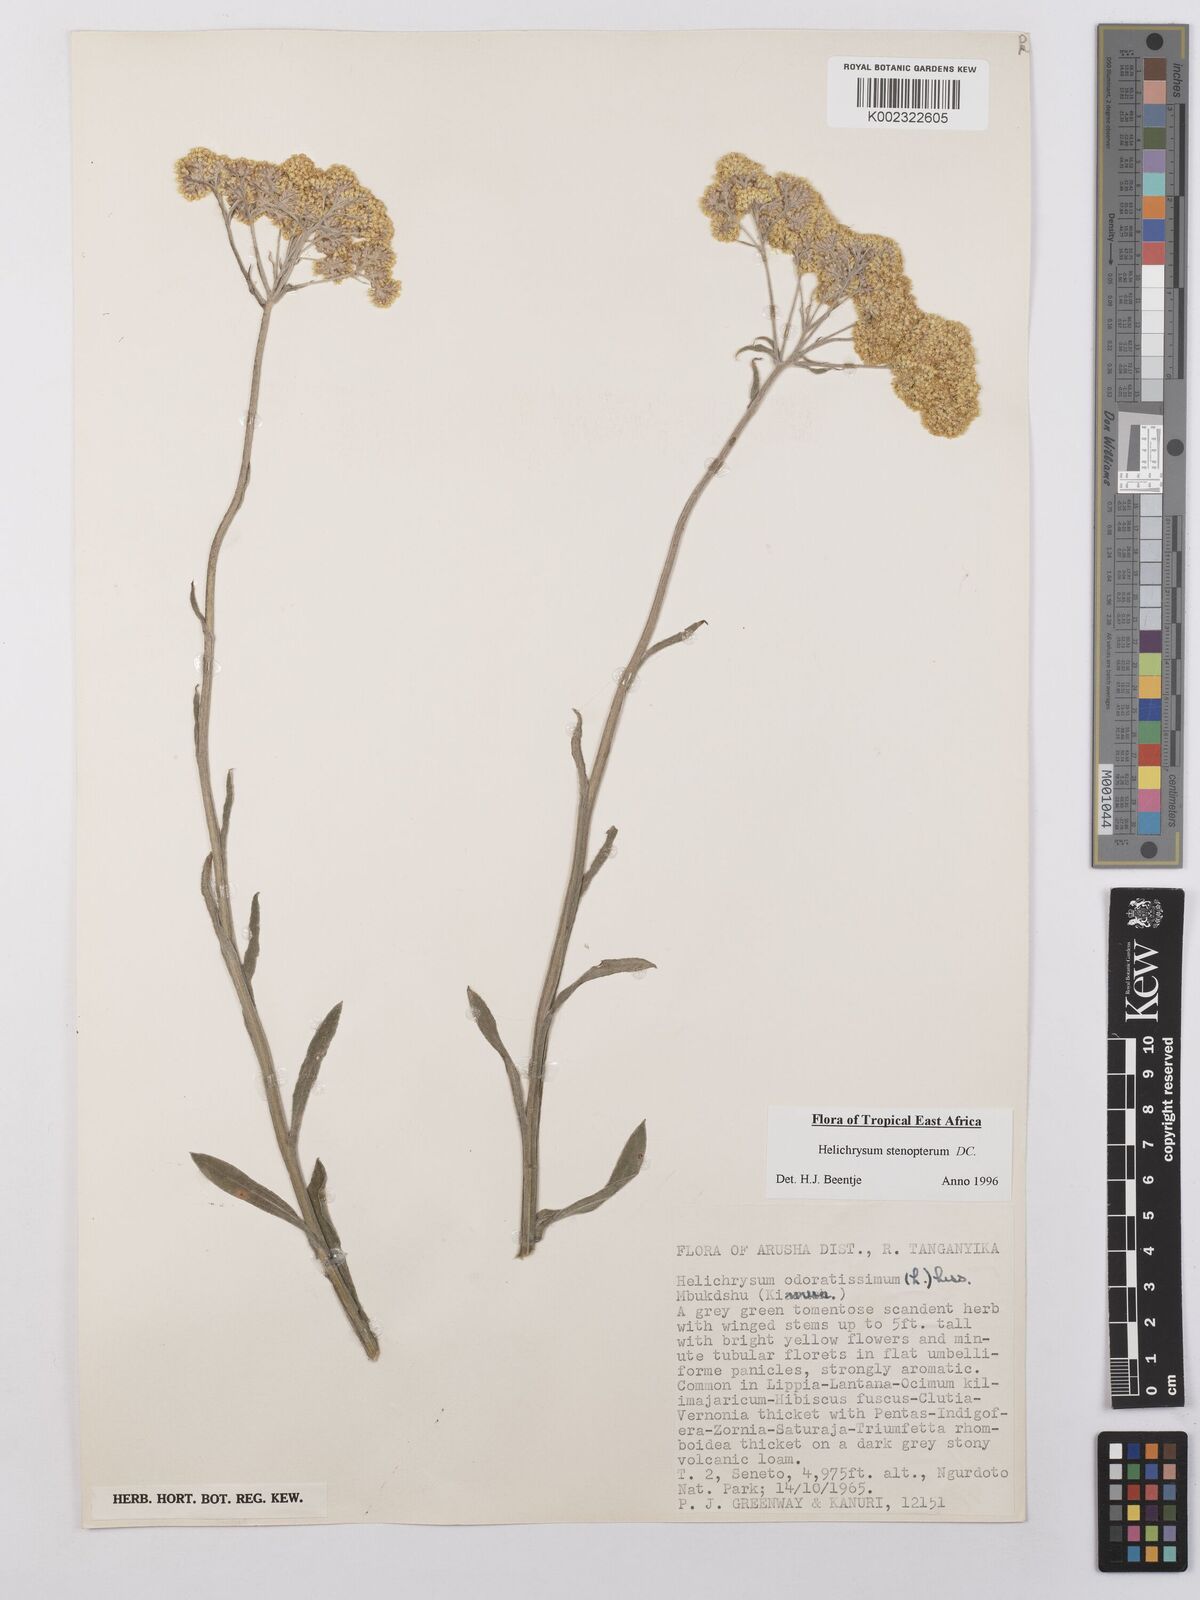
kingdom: Plantae
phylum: Tracheophyta
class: Magnoliopsida
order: Asterales
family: Asteraceae
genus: Helichrysum
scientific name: Helichrysum stenopterum
